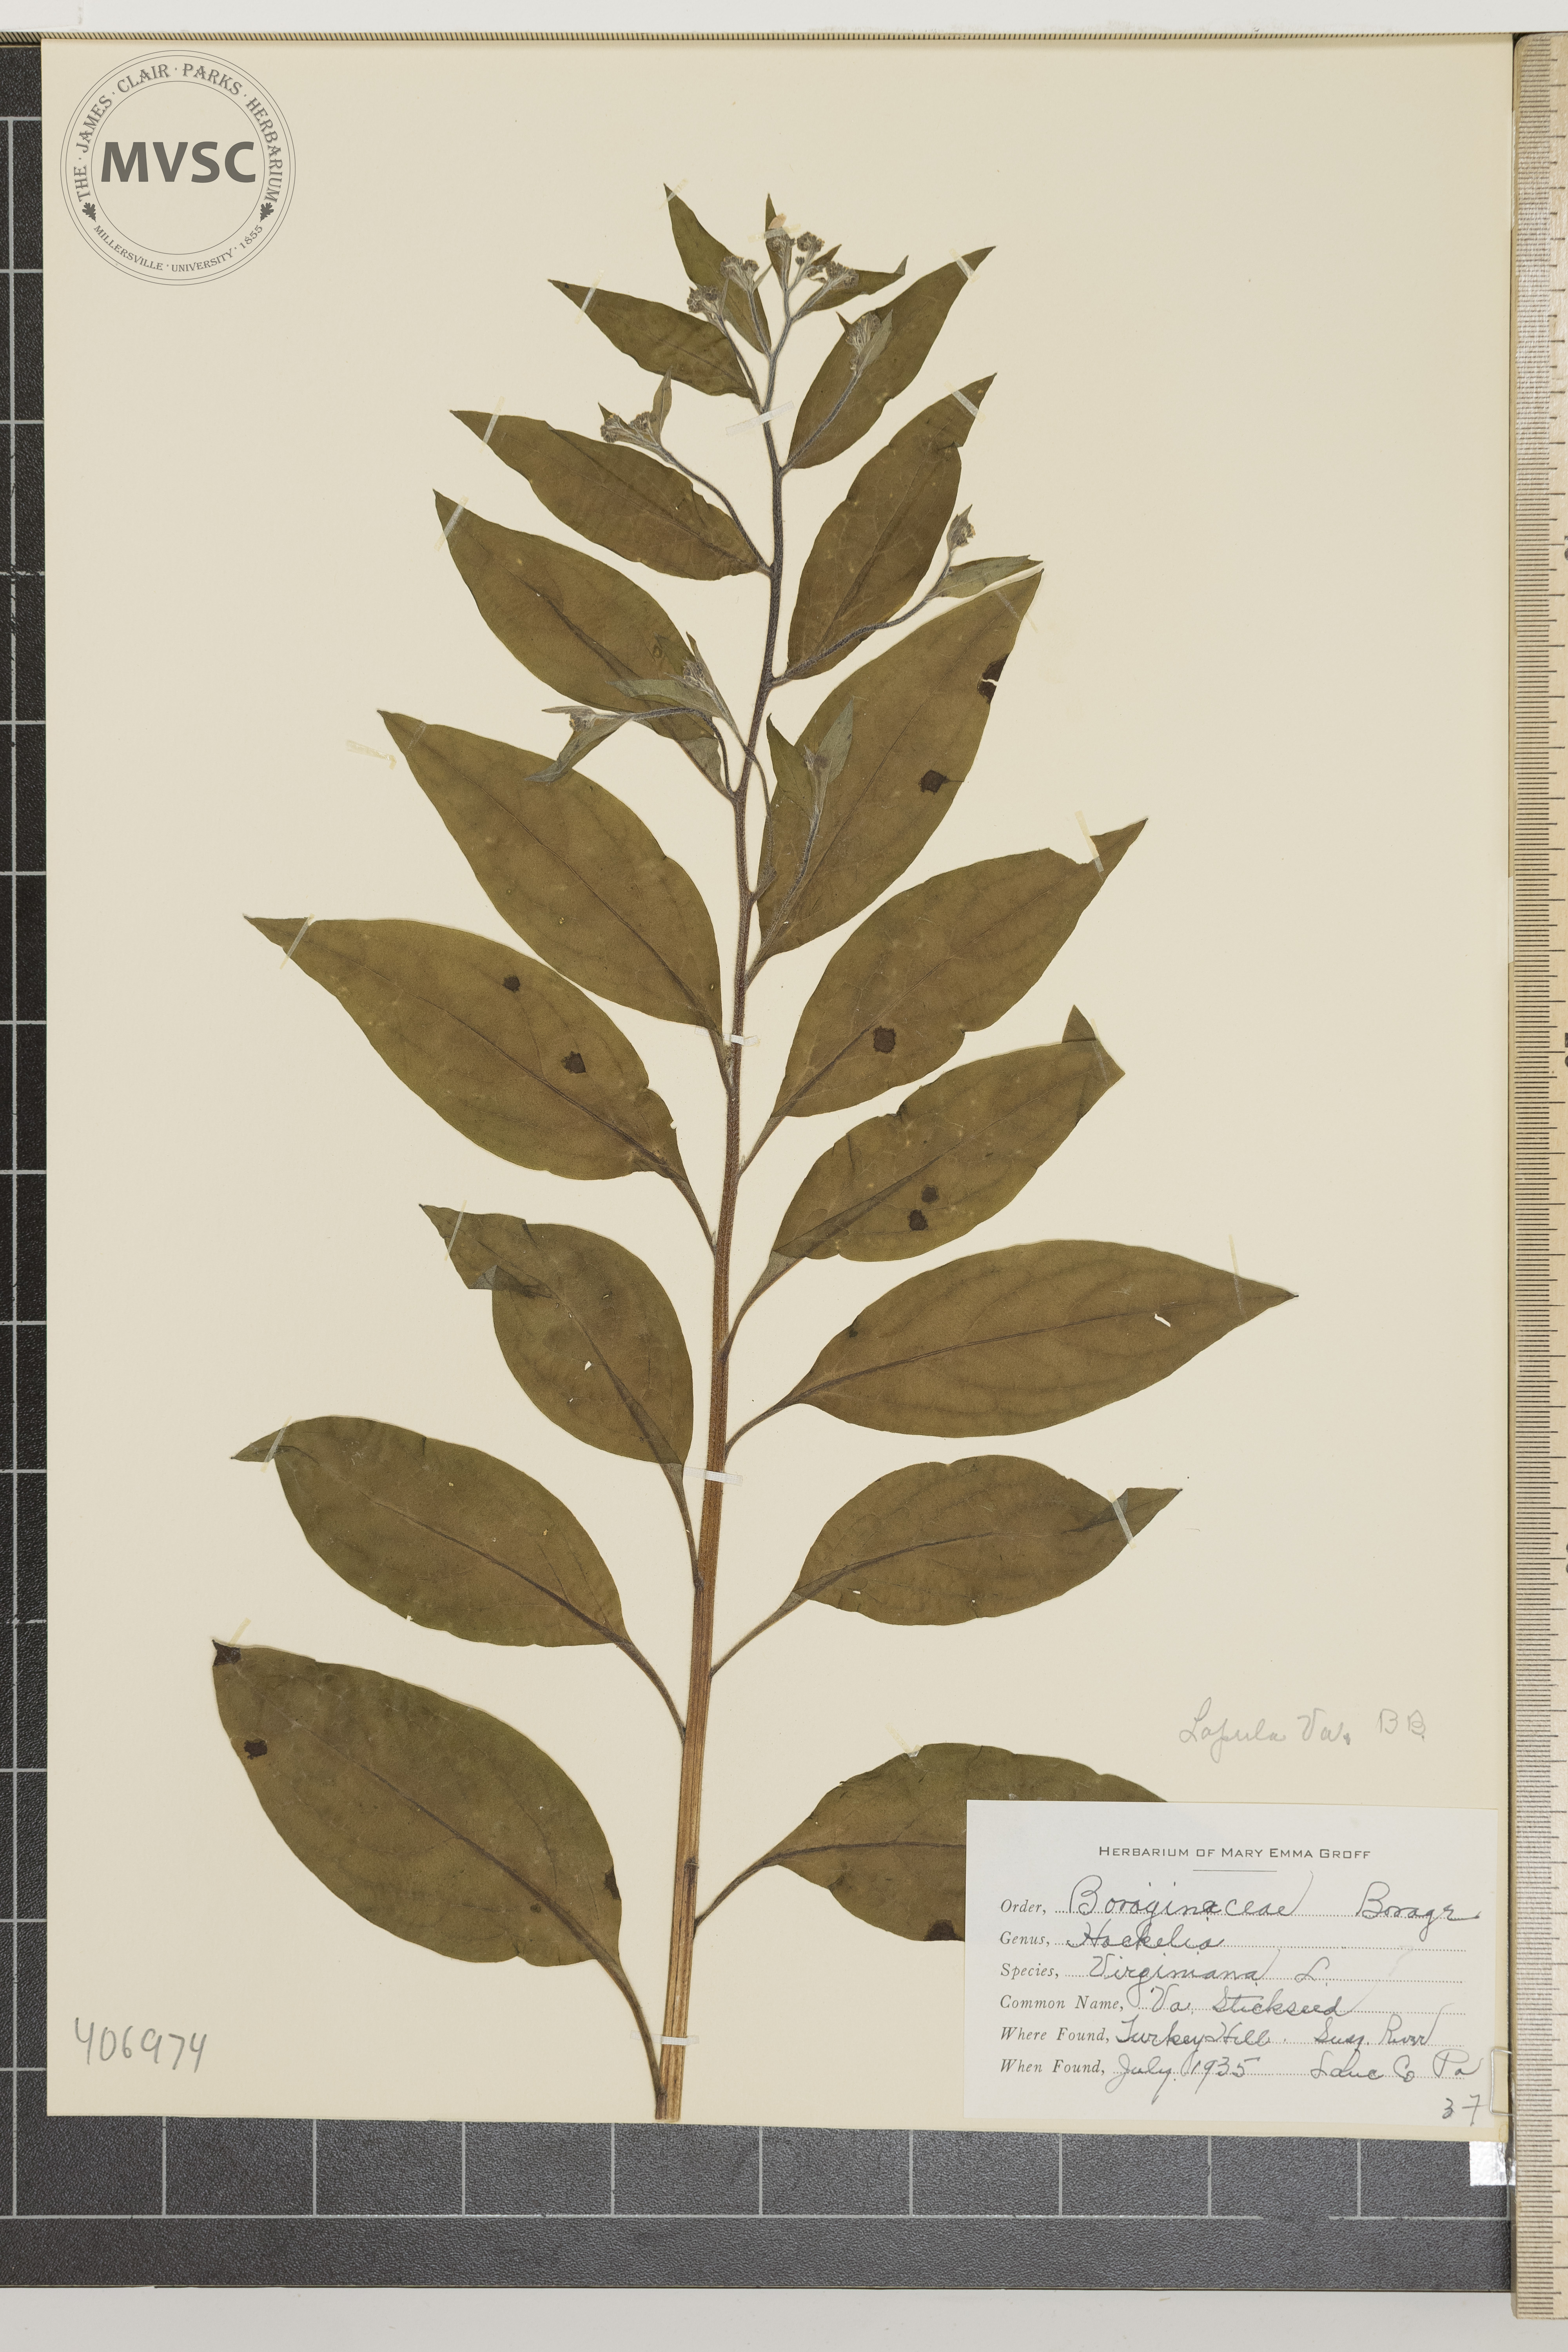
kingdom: Plantae
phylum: Tracheophyta
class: Magnoliopsida
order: Boraginales
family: Boraginaceae
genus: Hackelia
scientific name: Hackelia virginiana
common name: virginia Stickseed
